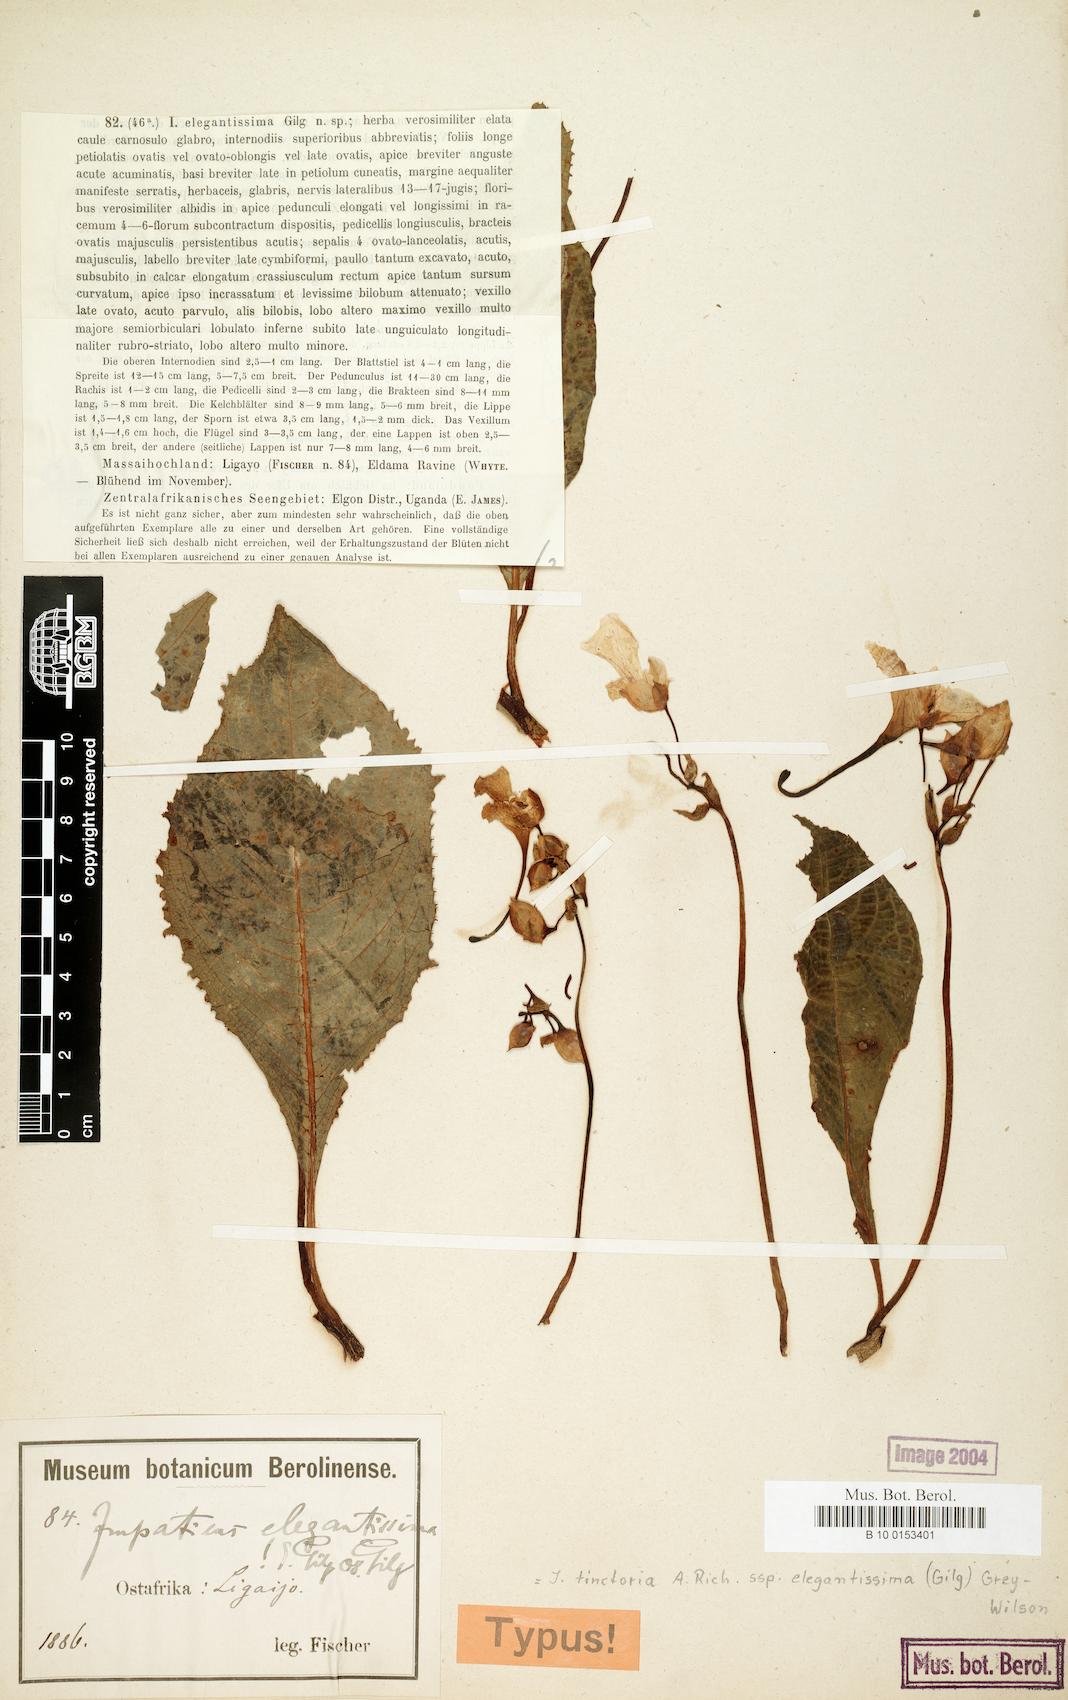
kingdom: Plantae
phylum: Tracheophyta
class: Magnoliopsida
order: Ericales
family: Balsaminaceae
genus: Impatiens
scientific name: Impatiens tinctoria
